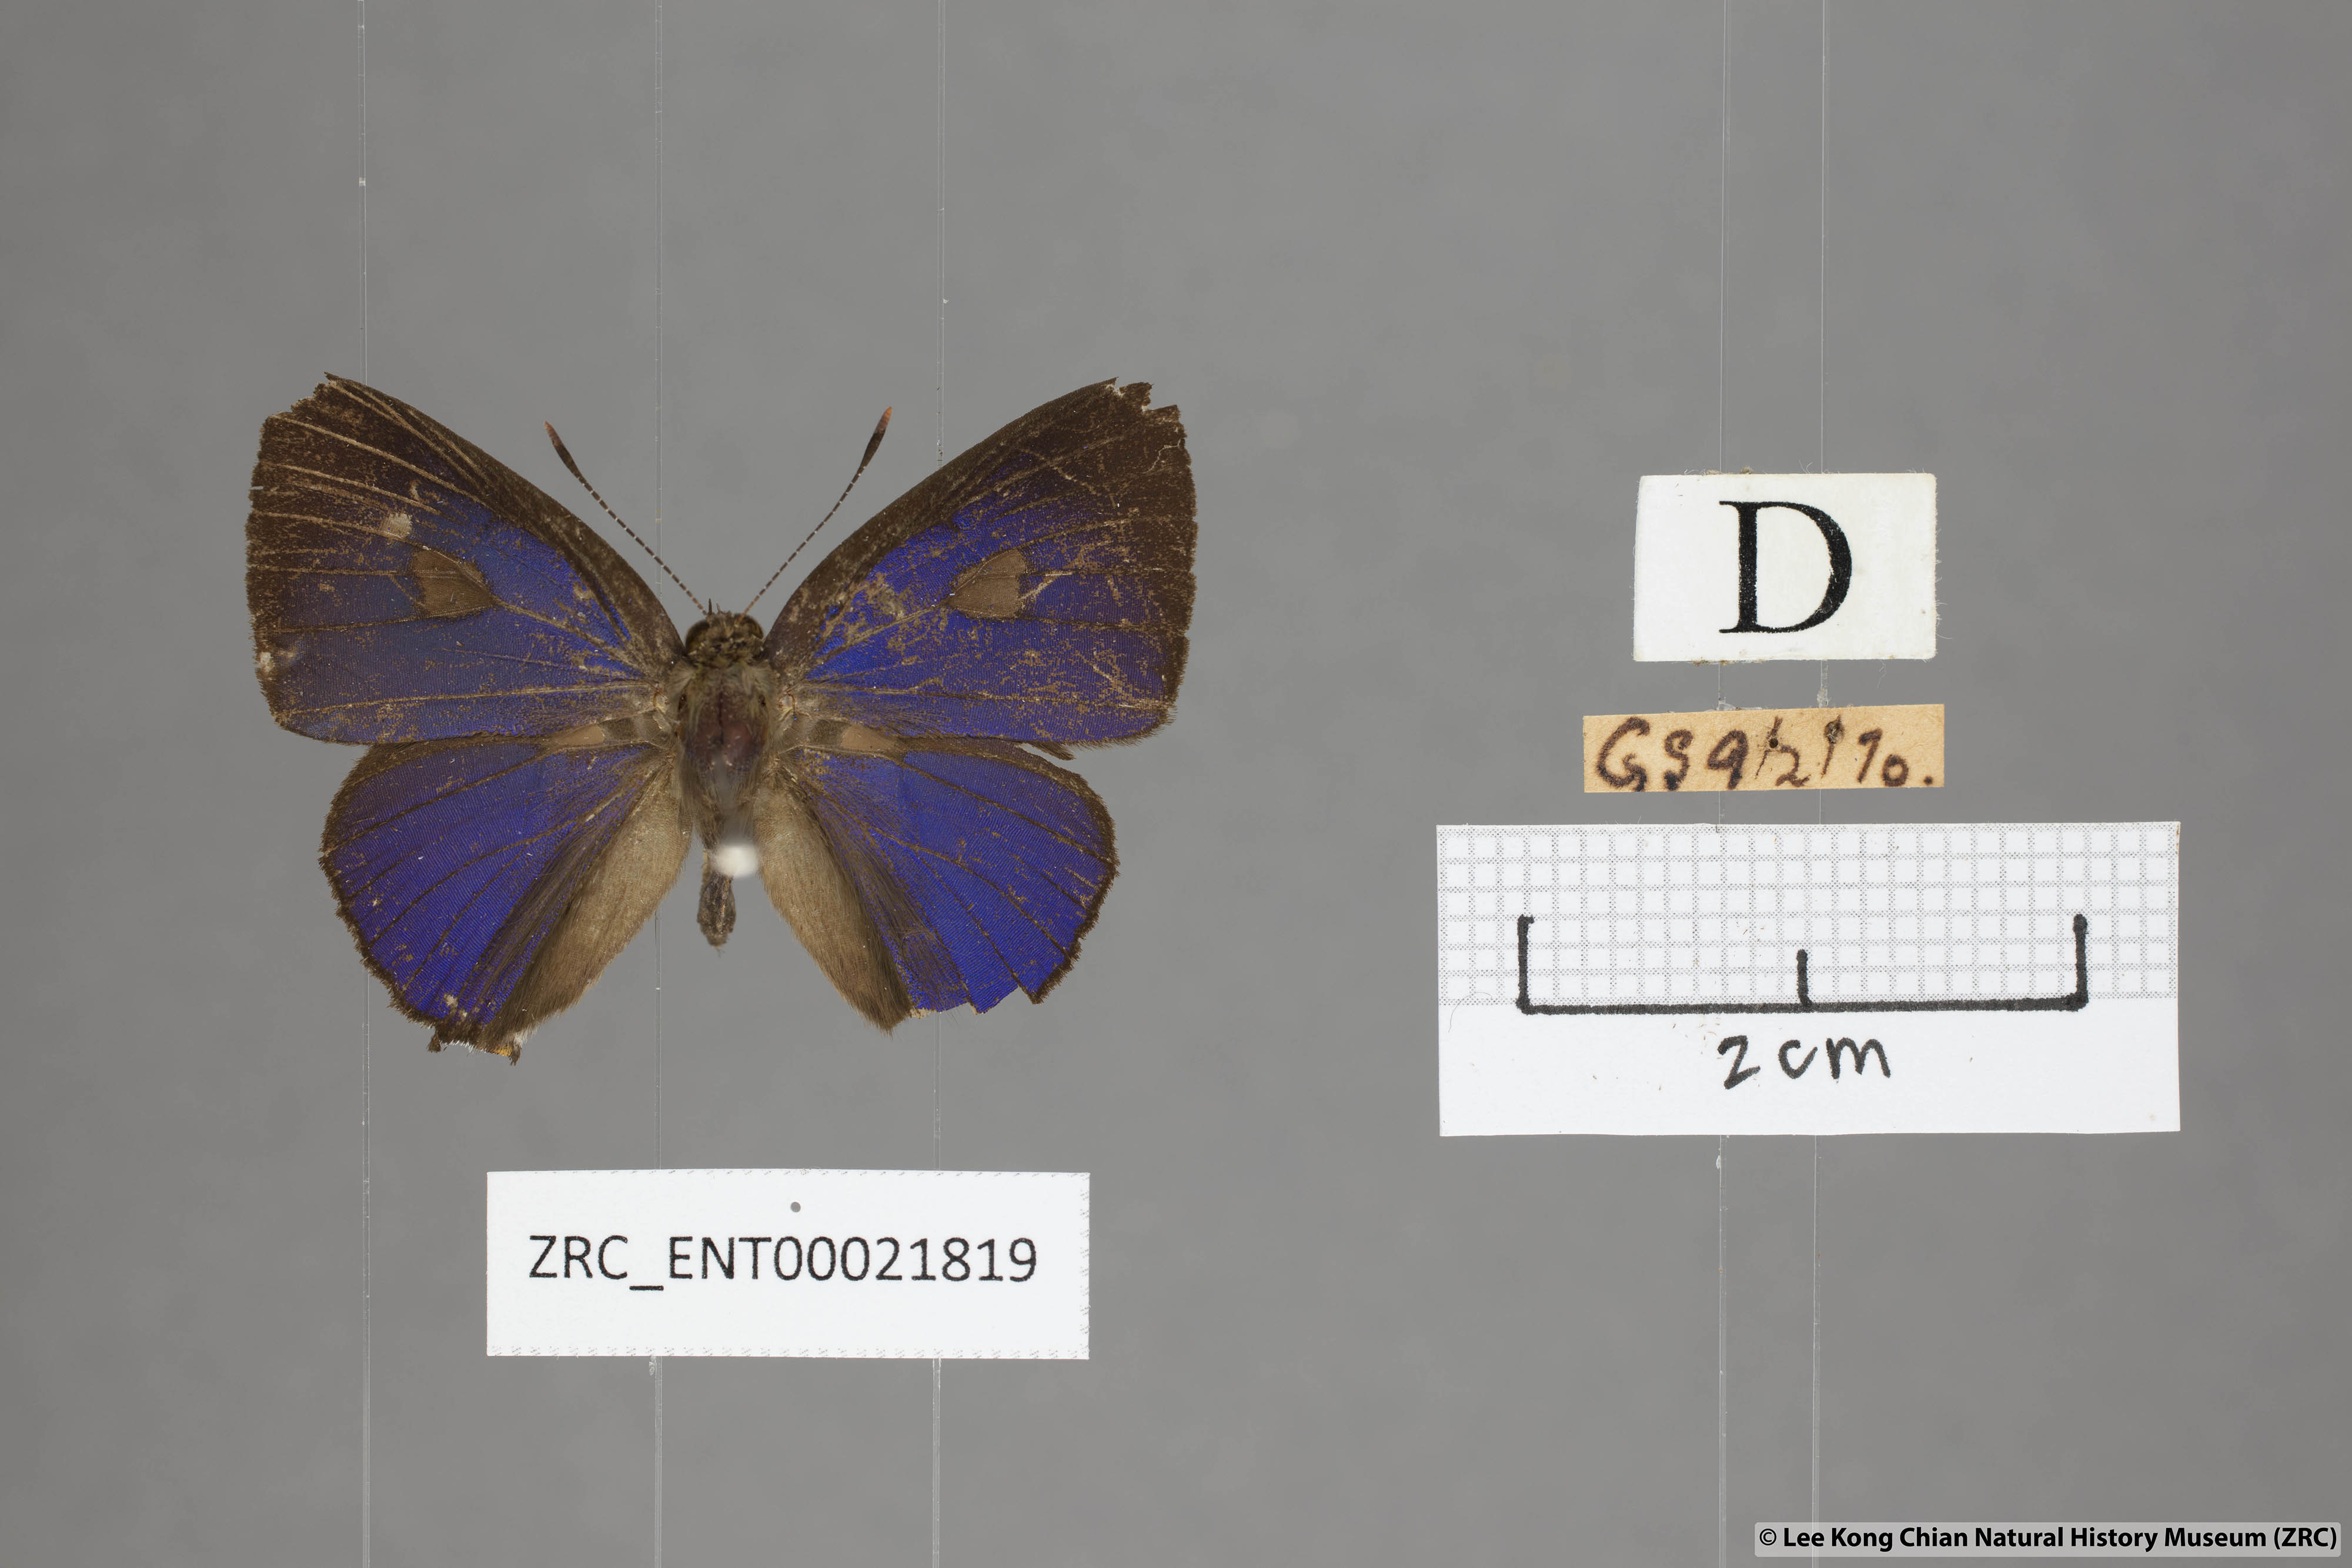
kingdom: Animalia
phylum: Arthropoda
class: Insecta
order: Lepidoptera
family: Lycaenidae
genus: Rapala
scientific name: Rapala rhoecus
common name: Brilliant flash
